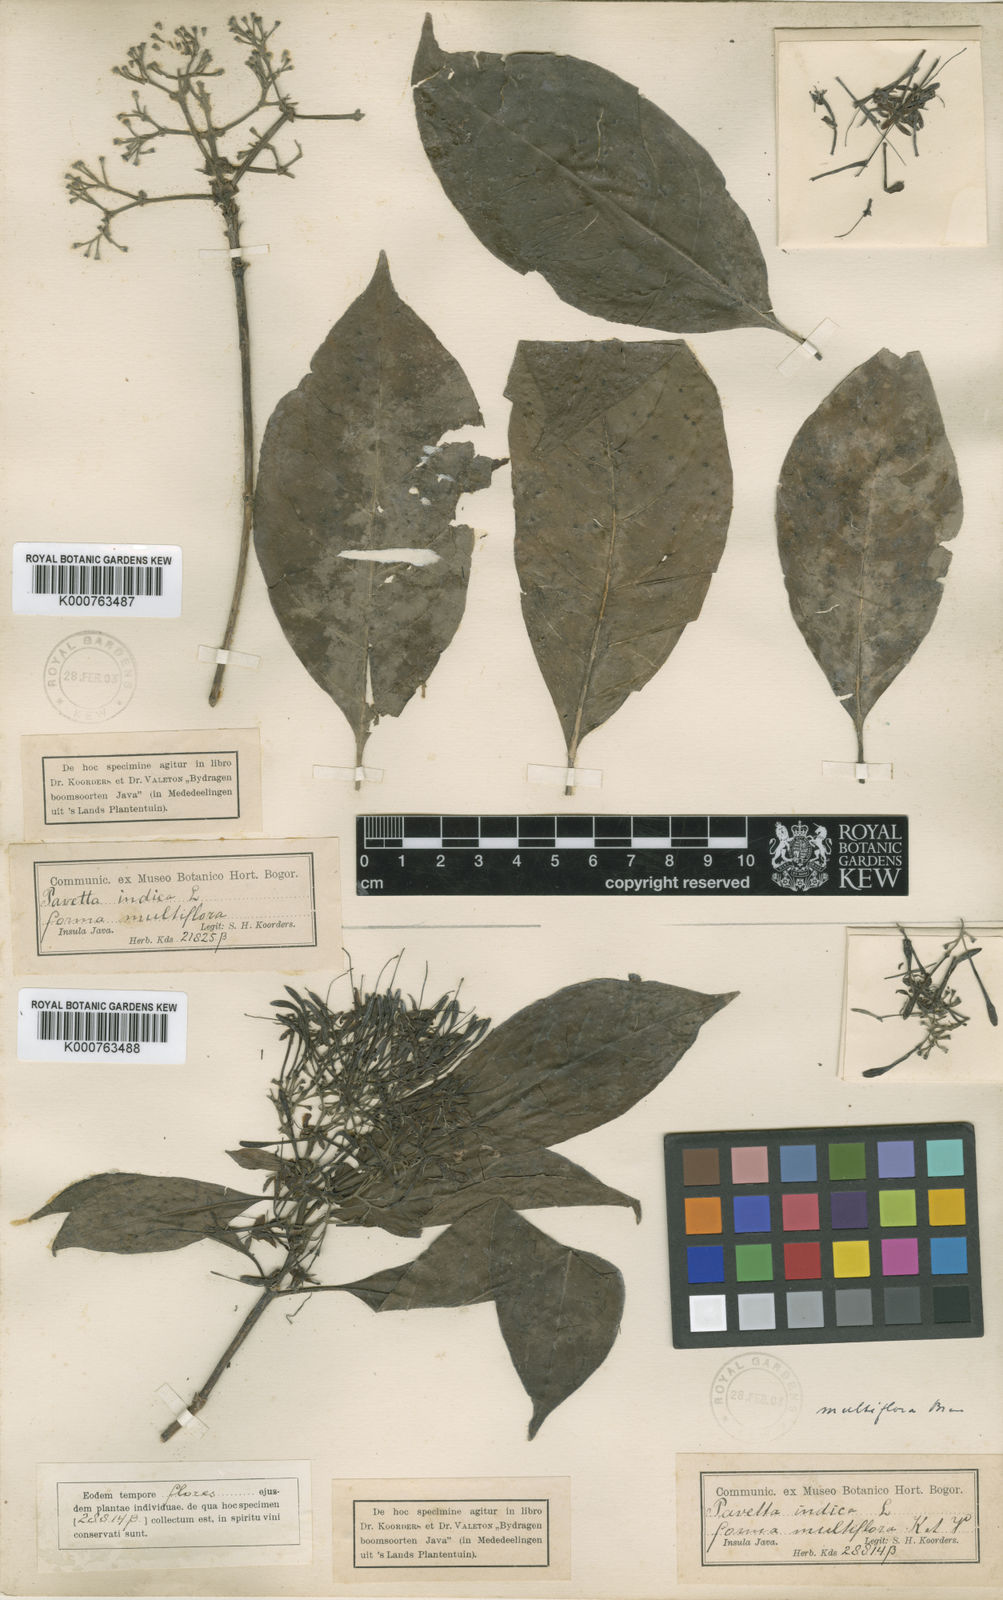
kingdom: Plantae
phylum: Tracheophyta
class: Magnoliopsida
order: Gentianales
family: Rubiaceae
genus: Pavetta
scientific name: Pavetta multiflora
